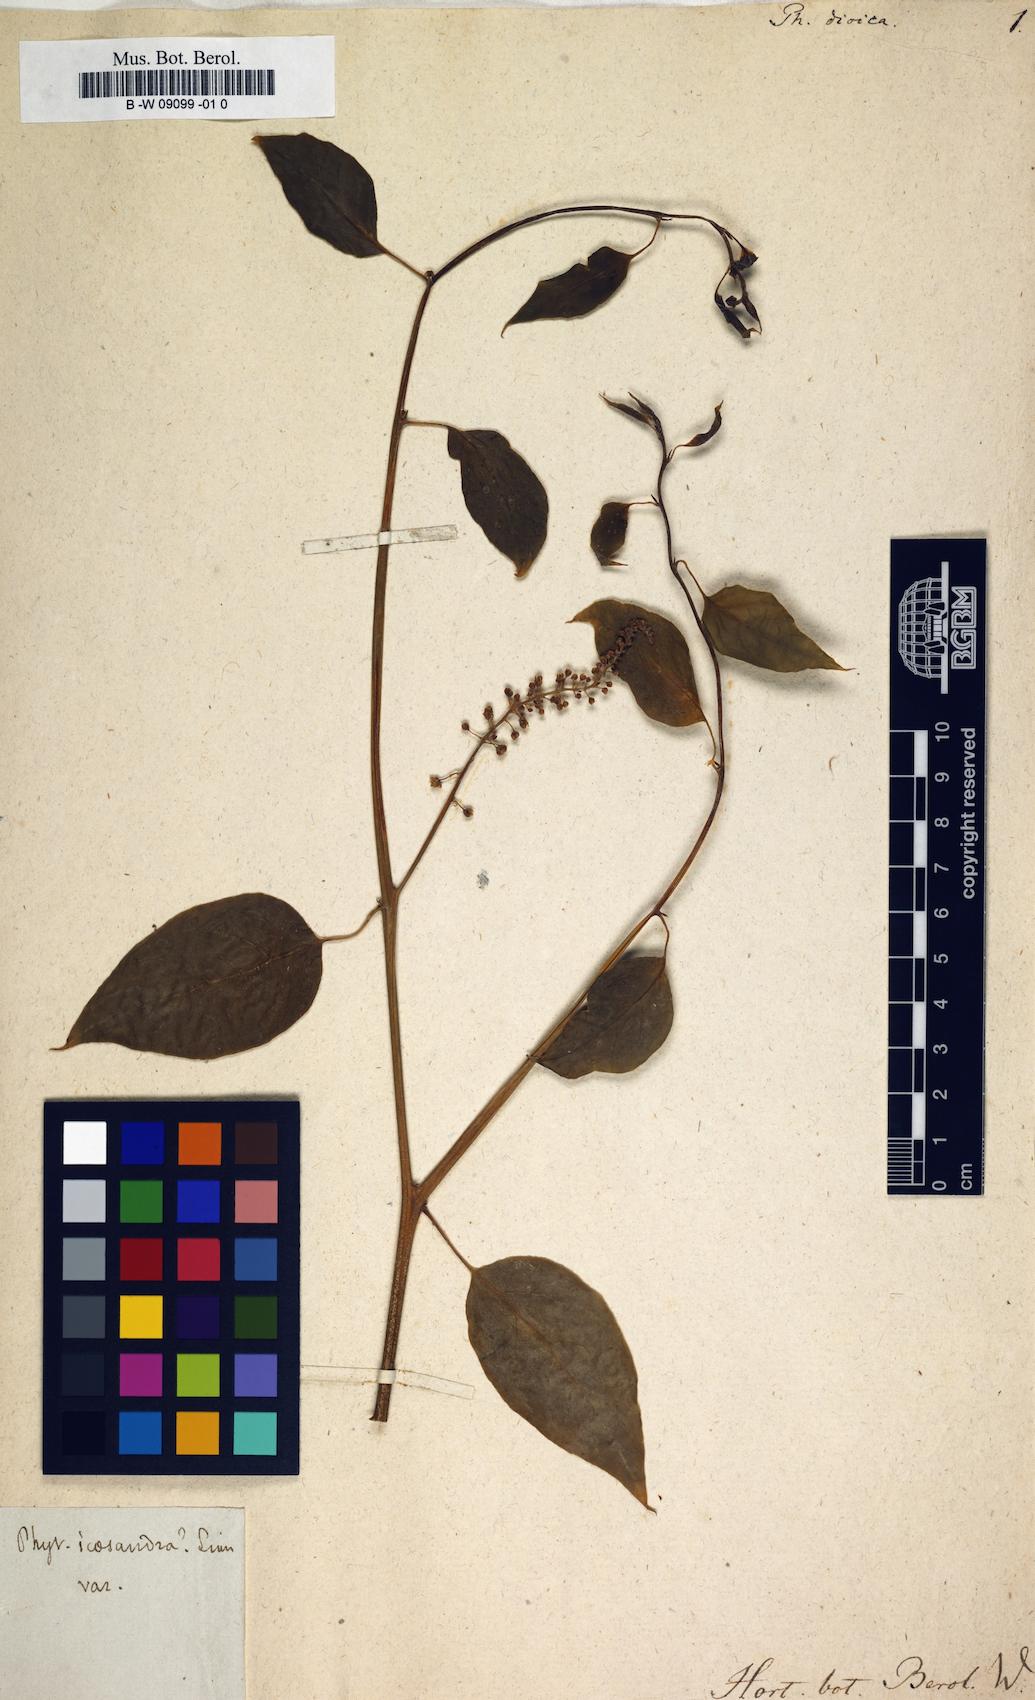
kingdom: Plantae
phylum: Tracheophyta
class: Magnoliopsida
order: Caryophyllales
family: Phytolaccaceae
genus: Phytolacca
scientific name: Phytolacca dioica
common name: Pokeweed
